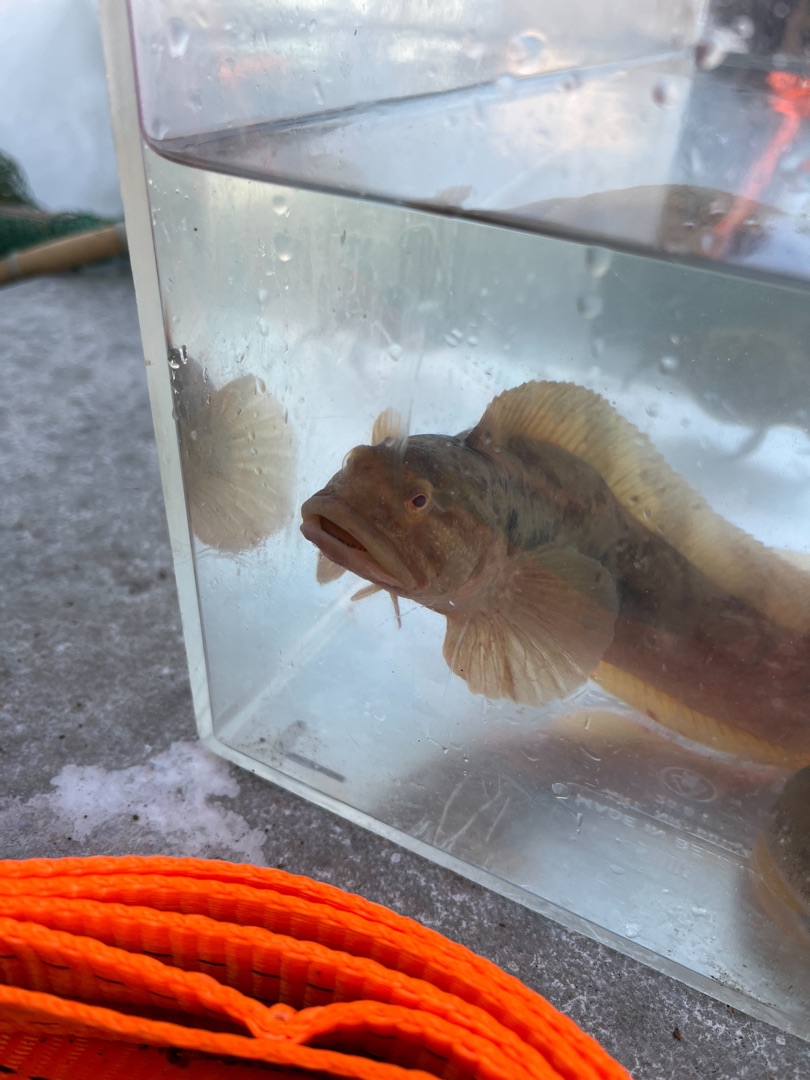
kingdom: Animalia
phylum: Chordata
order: Perciformes
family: Zoarcidae
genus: Zoarces
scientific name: Zoarces viviparus
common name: Ålekvabbe
